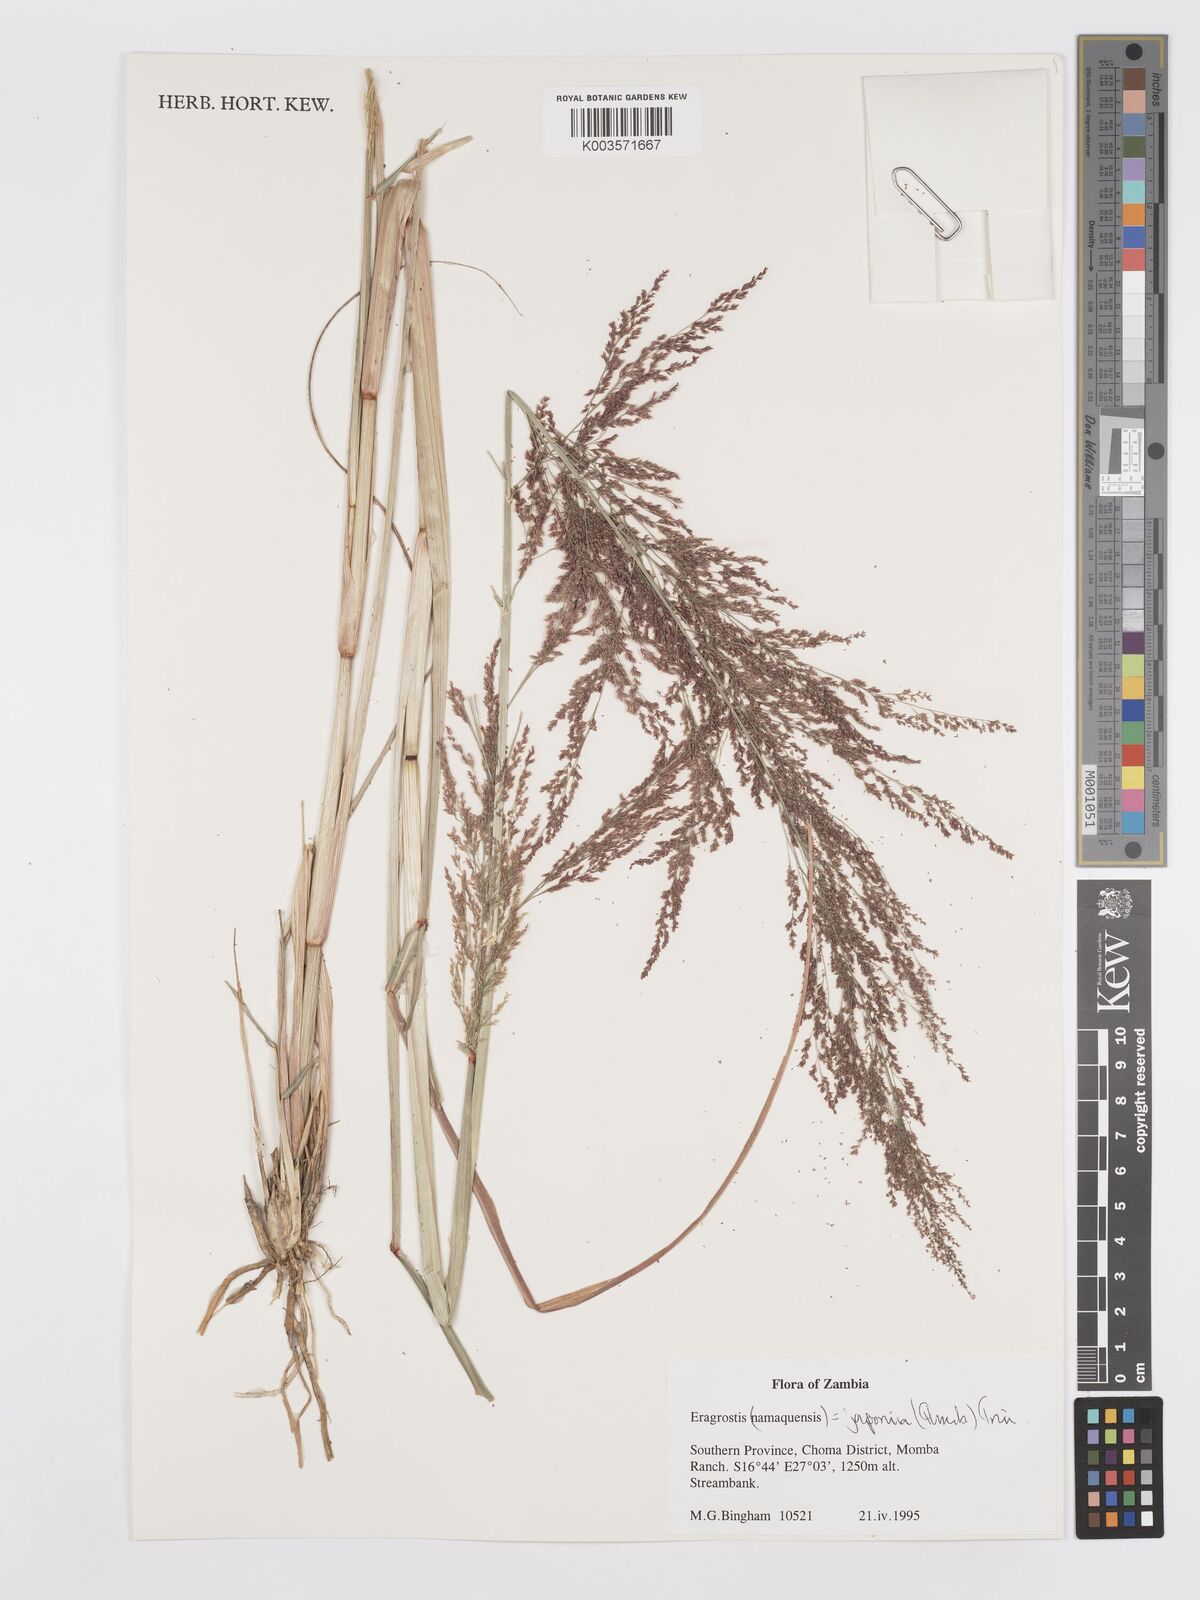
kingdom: Plantae
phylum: Tracheophyta
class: Liliopsida
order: Poales
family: Poaceae
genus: Eragrostis
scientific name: Eragrostis japonica
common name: Pond lovegrass
